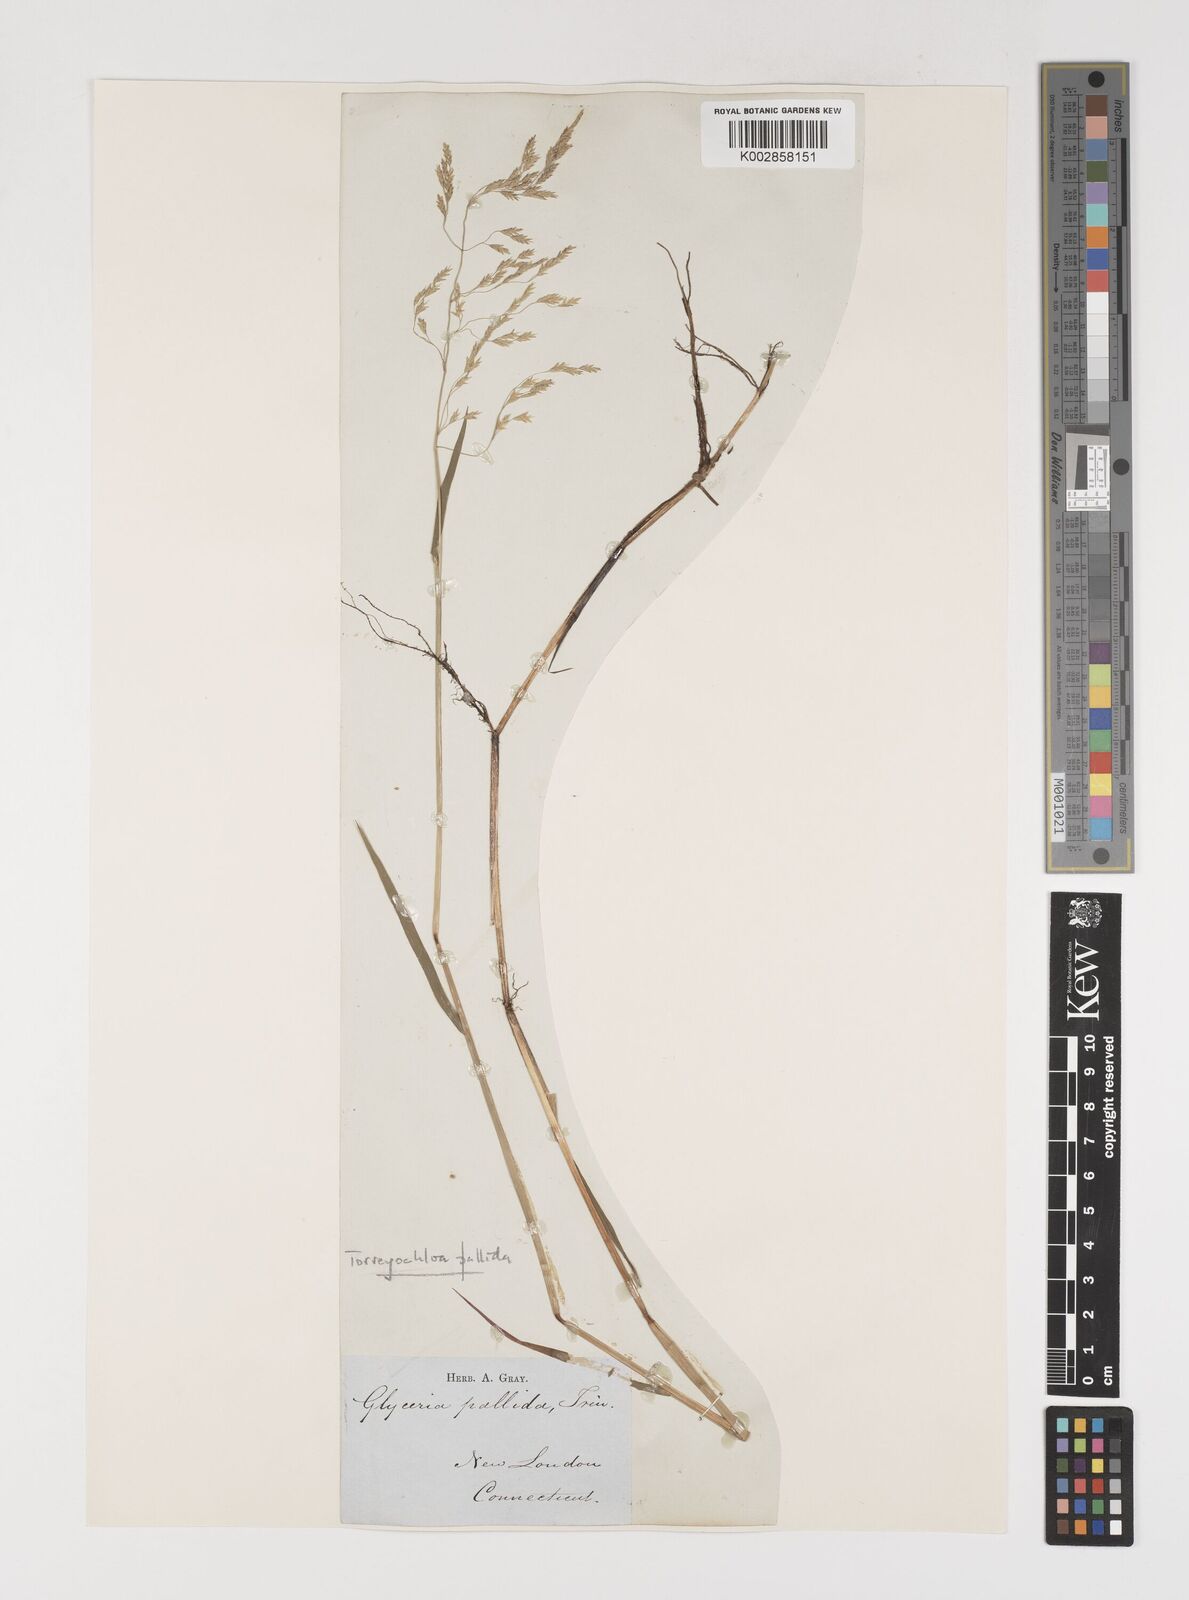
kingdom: Plantae
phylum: Tracheophyta
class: Liliopsida
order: Poales
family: Poaceae
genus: Torreyochloa
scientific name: Torreyochloa pallida
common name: Pale false mannagrass
